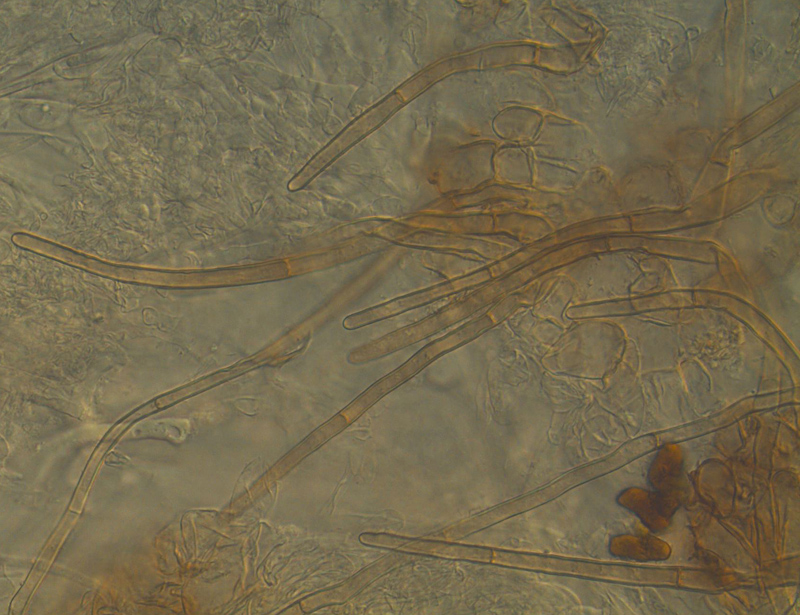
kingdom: Fungi
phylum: Ascomycota
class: Pezizomycetes
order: Pezizales
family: Pyronemataceae
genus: Trichophaea
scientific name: Trichophaea gregaria
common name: tensporet børstebæger
